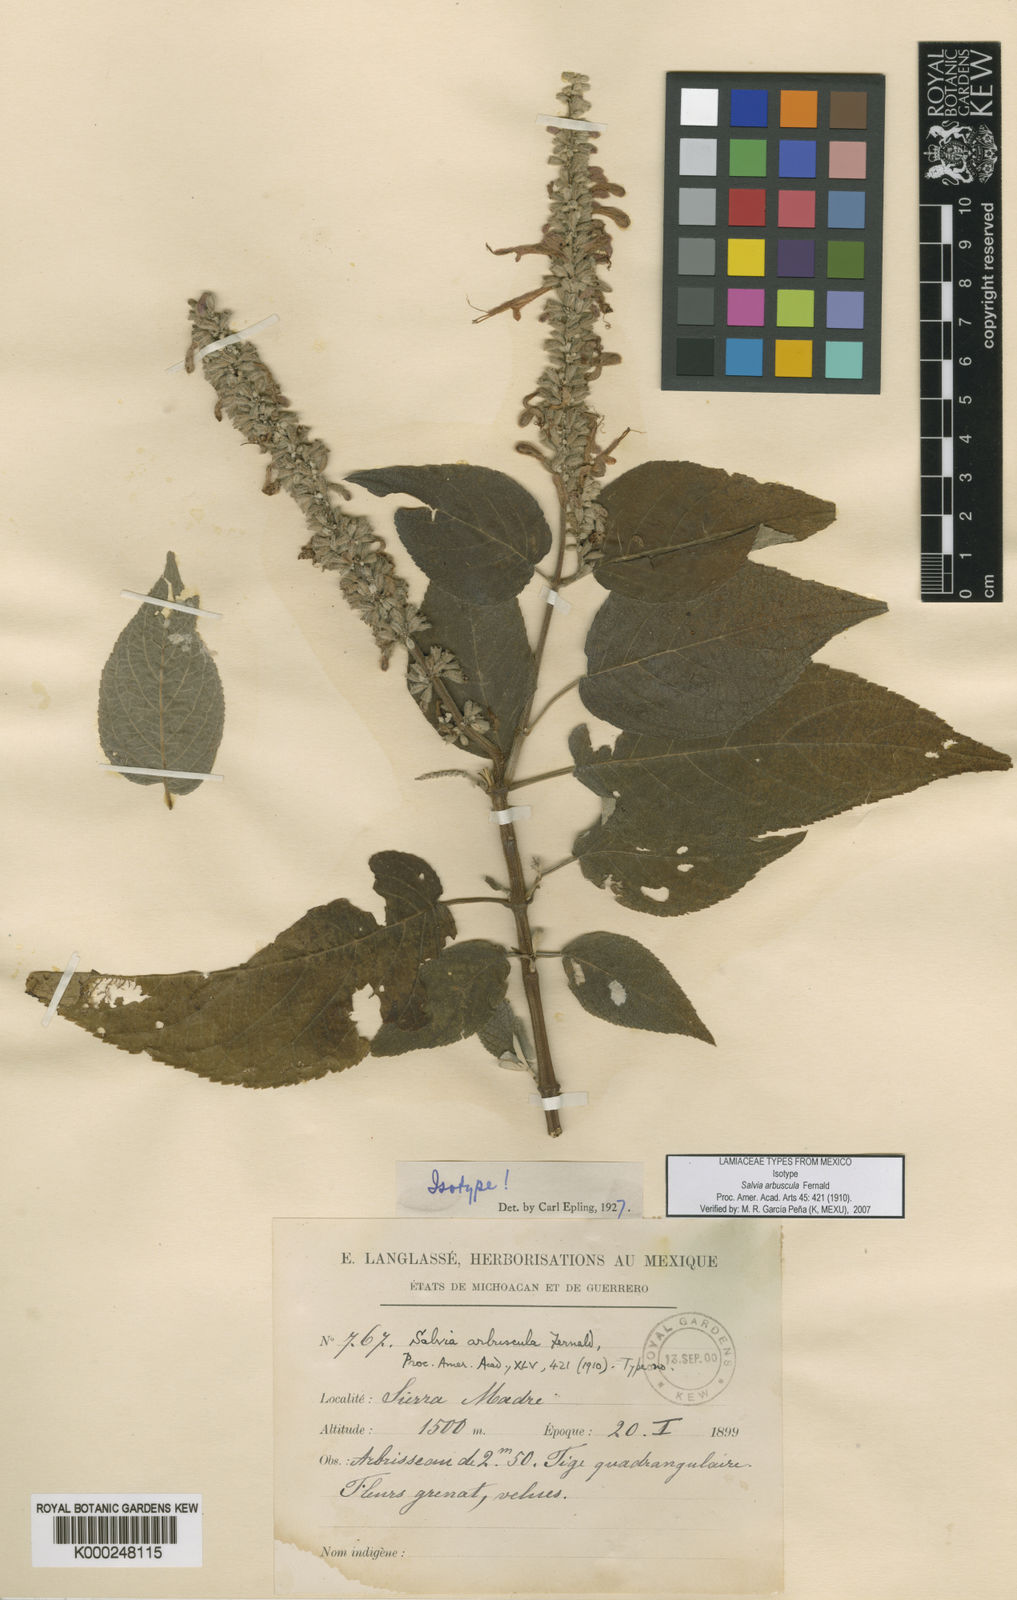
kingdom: Plantae
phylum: Tracheophyta
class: Magnoliopsida
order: Lamiales
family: Lamiaceae
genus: Salvia
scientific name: Salvia iodantha
